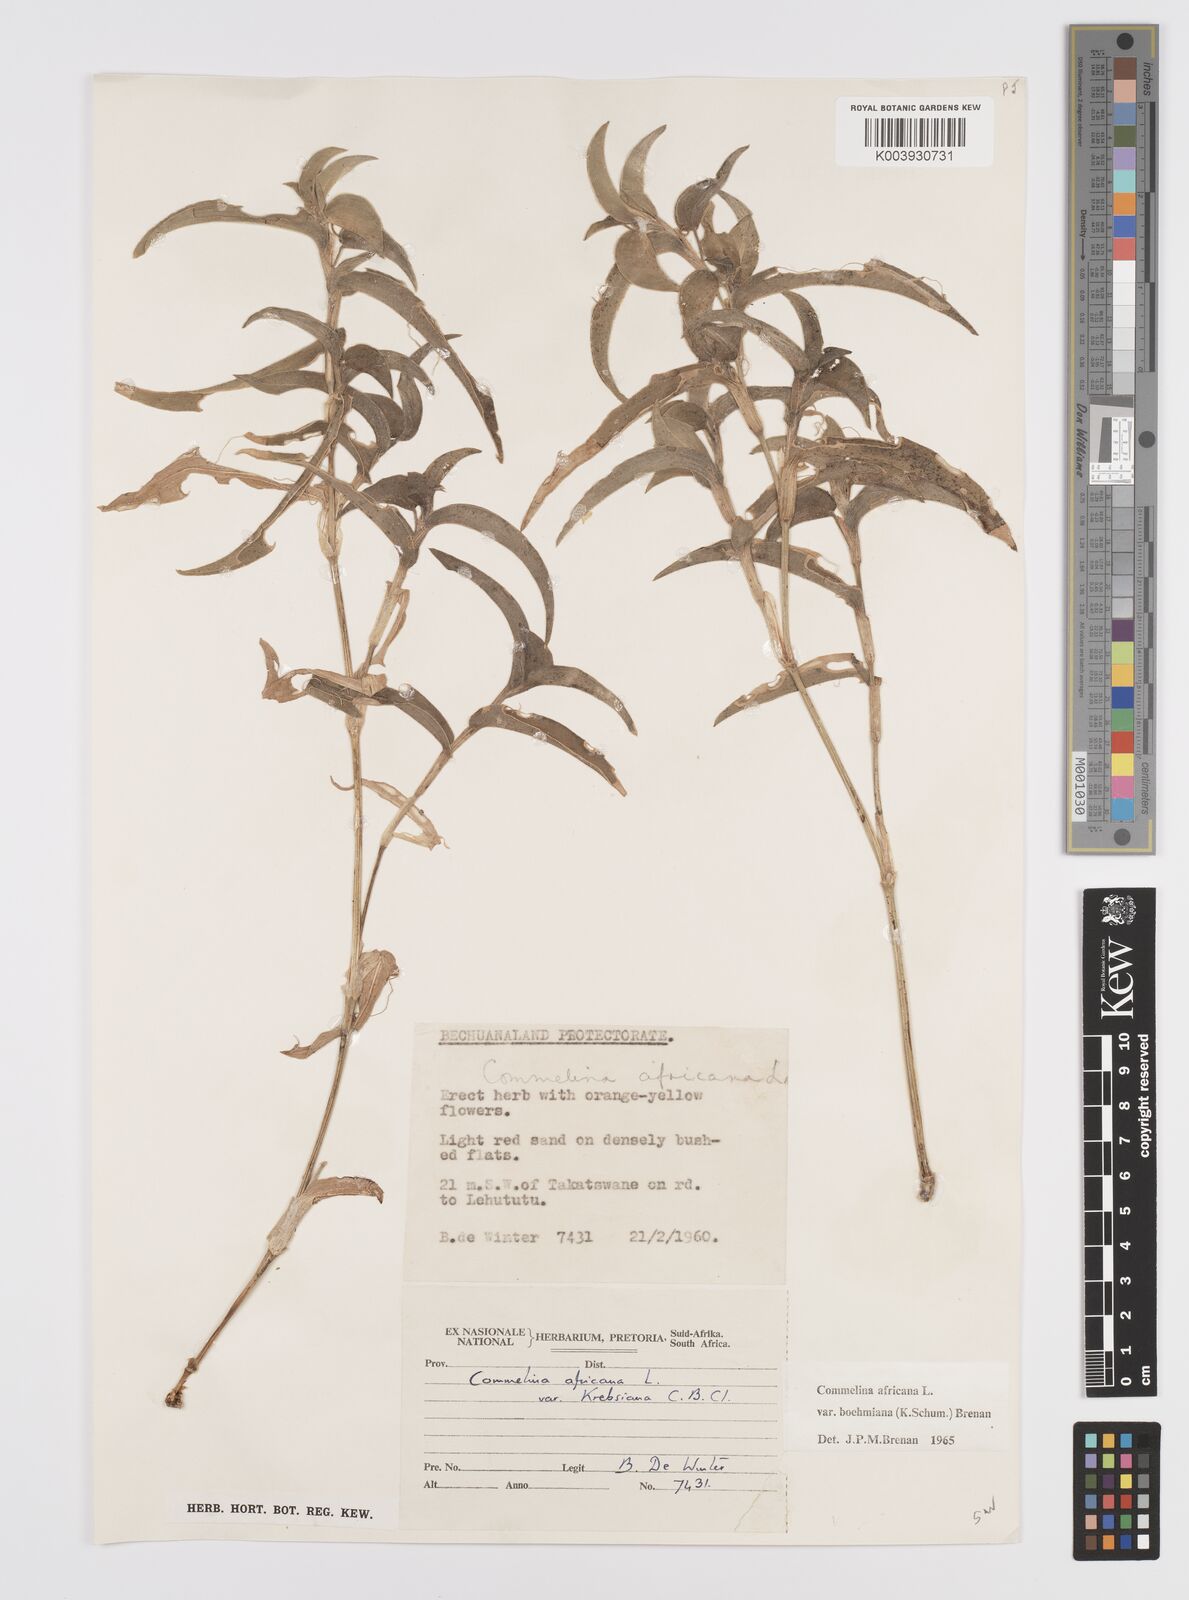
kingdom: Plantae
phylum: Tracheophyta
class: Liliopsida
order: Commelinales
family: Commelinaceae
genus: Commelina
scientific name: Commelina africana
